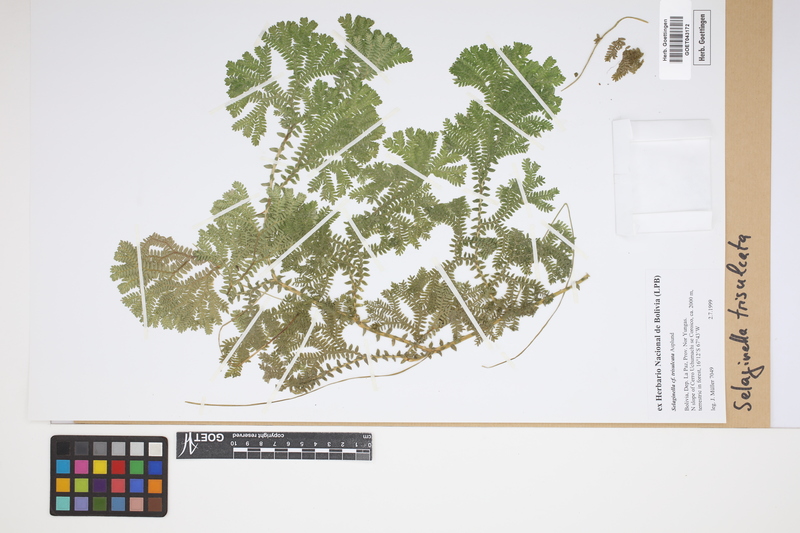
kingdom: Plantae
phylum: Tracheophyta
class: Lycopodiopsida
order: Selaginellales
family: Selaginellaceae
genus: Selaginella
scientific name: Selaginella trisulcata
